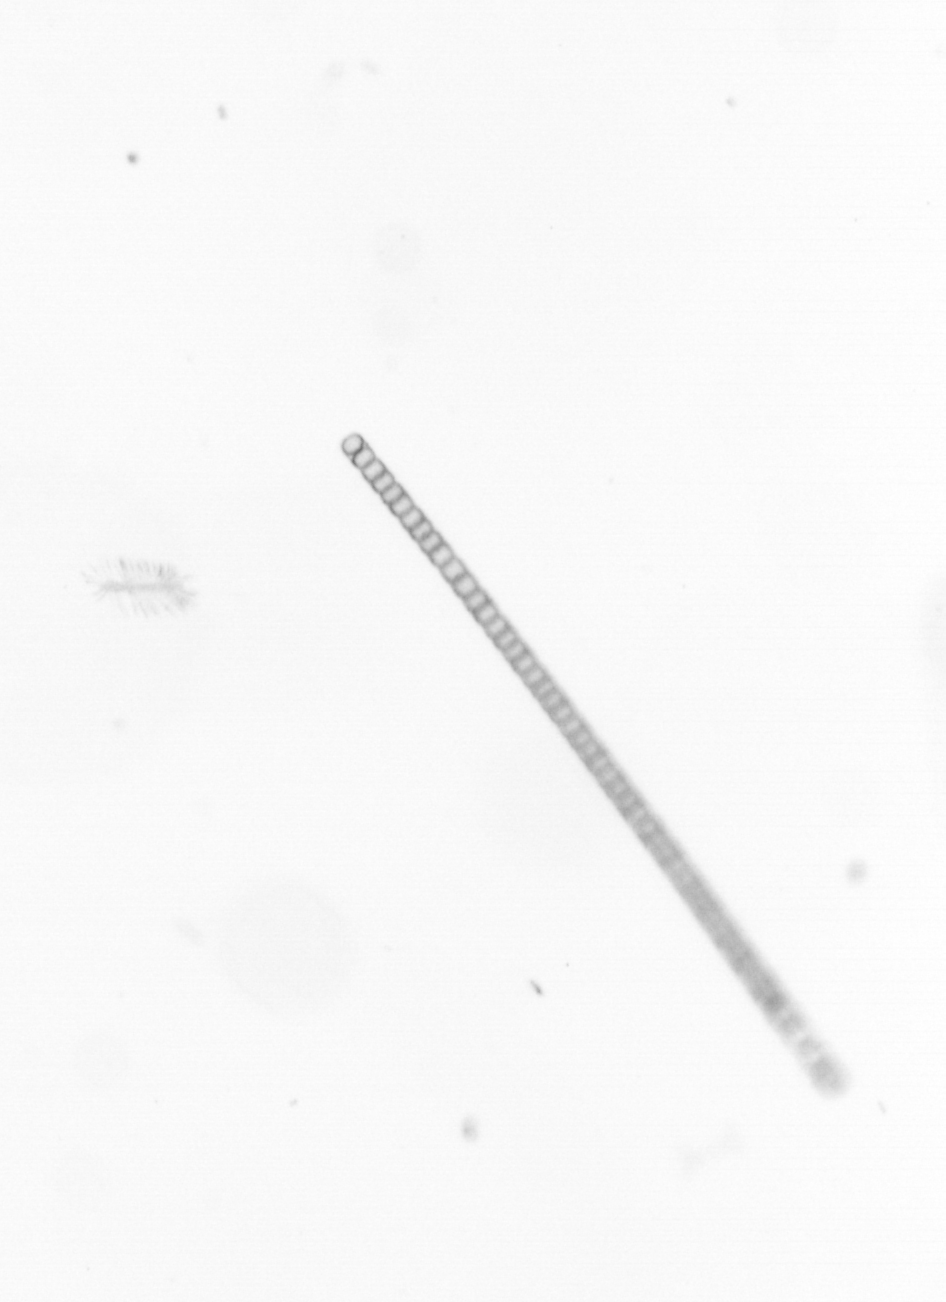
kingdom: Chromista
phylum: Ochrophyta
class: Bacillariophyceae
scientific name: Bacillariophyceae
